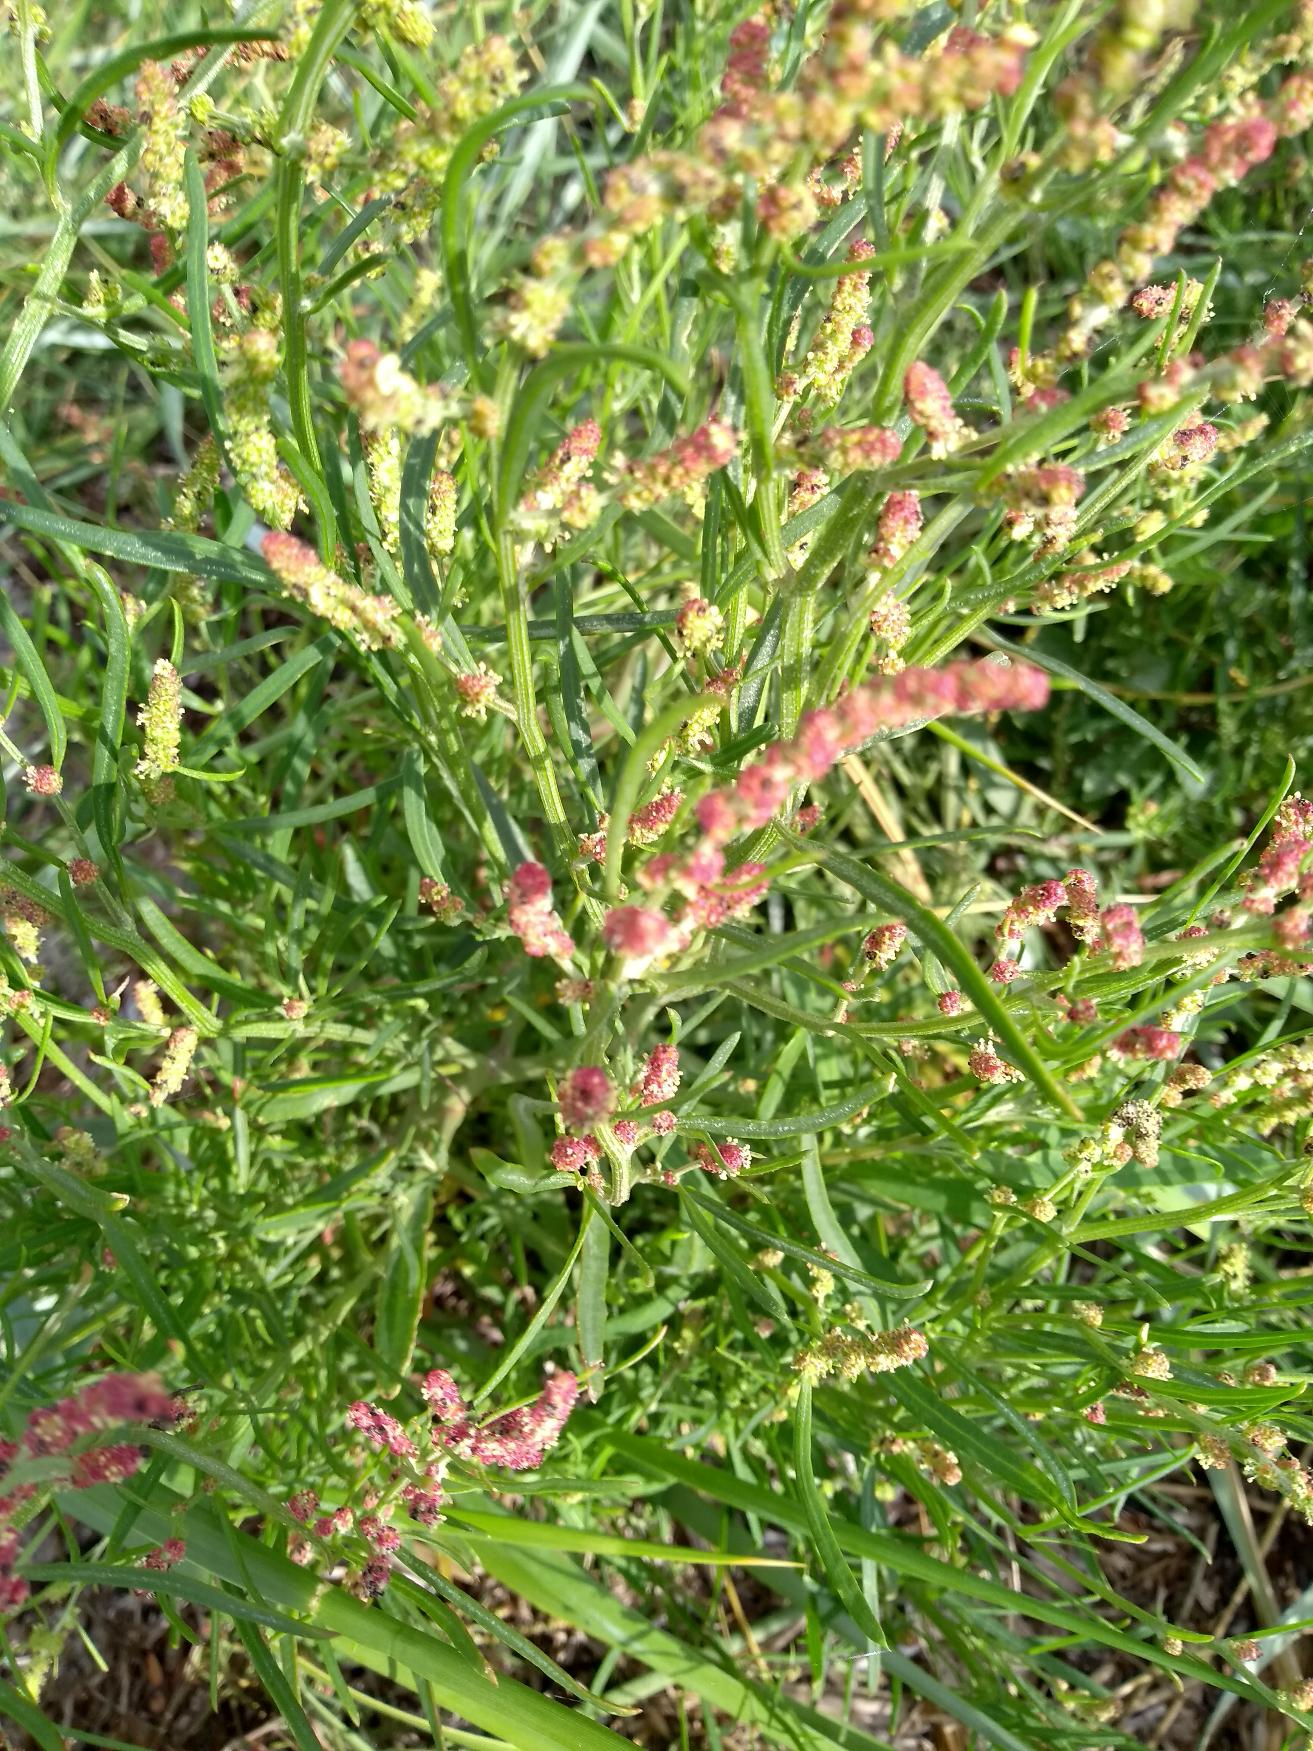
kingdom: Plantae
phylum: Tracheophyta
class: Magnoliopsida
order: Caryophyllales
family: Amaranthaceae
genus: Atriplex
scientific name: Atriplex littoralis
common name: Strand-mælde
